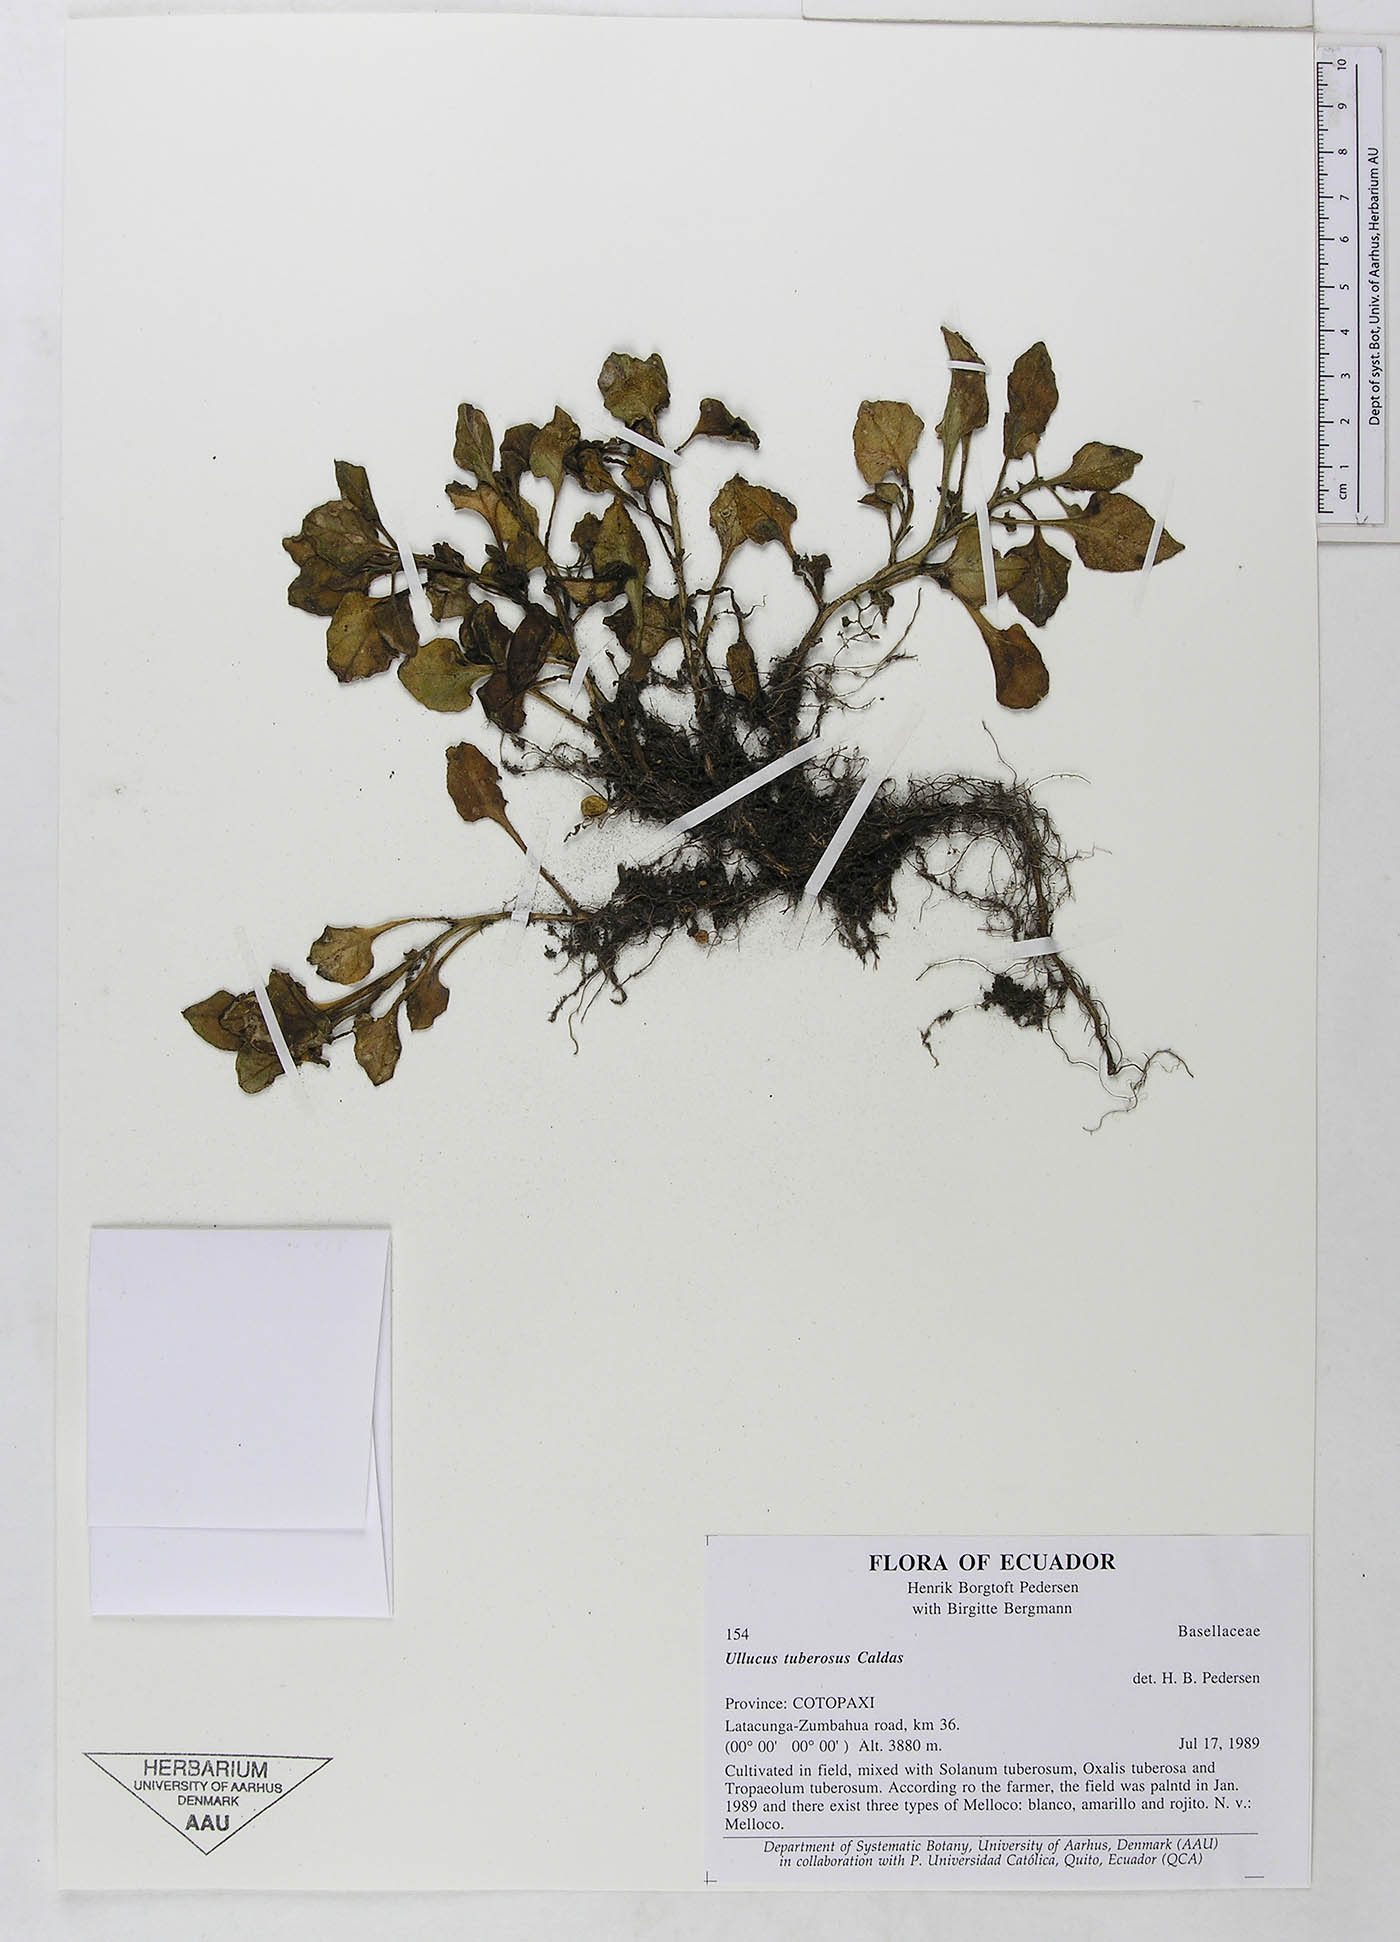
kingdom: Plantae
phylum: Tracheophyta
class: Magnoliopsida
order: Caryophyllales
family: Basellaceae
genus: Ullucus
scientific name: Ullucus tuberosus
